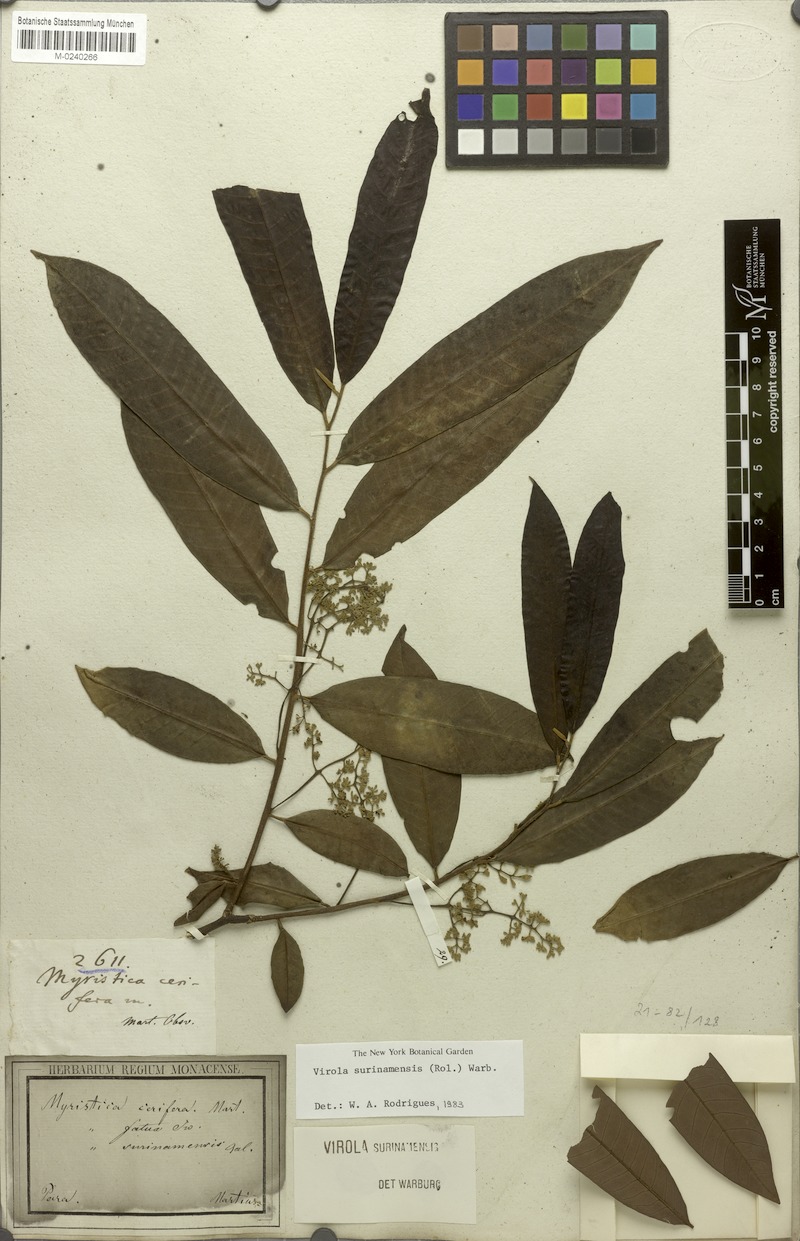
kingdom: Plantae
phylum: Tracheophyta
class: Magnoliopsida
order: Magnoliales
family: Myristicaceae
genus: Virola
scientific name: Virola surinamensis
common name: Baboonwood
